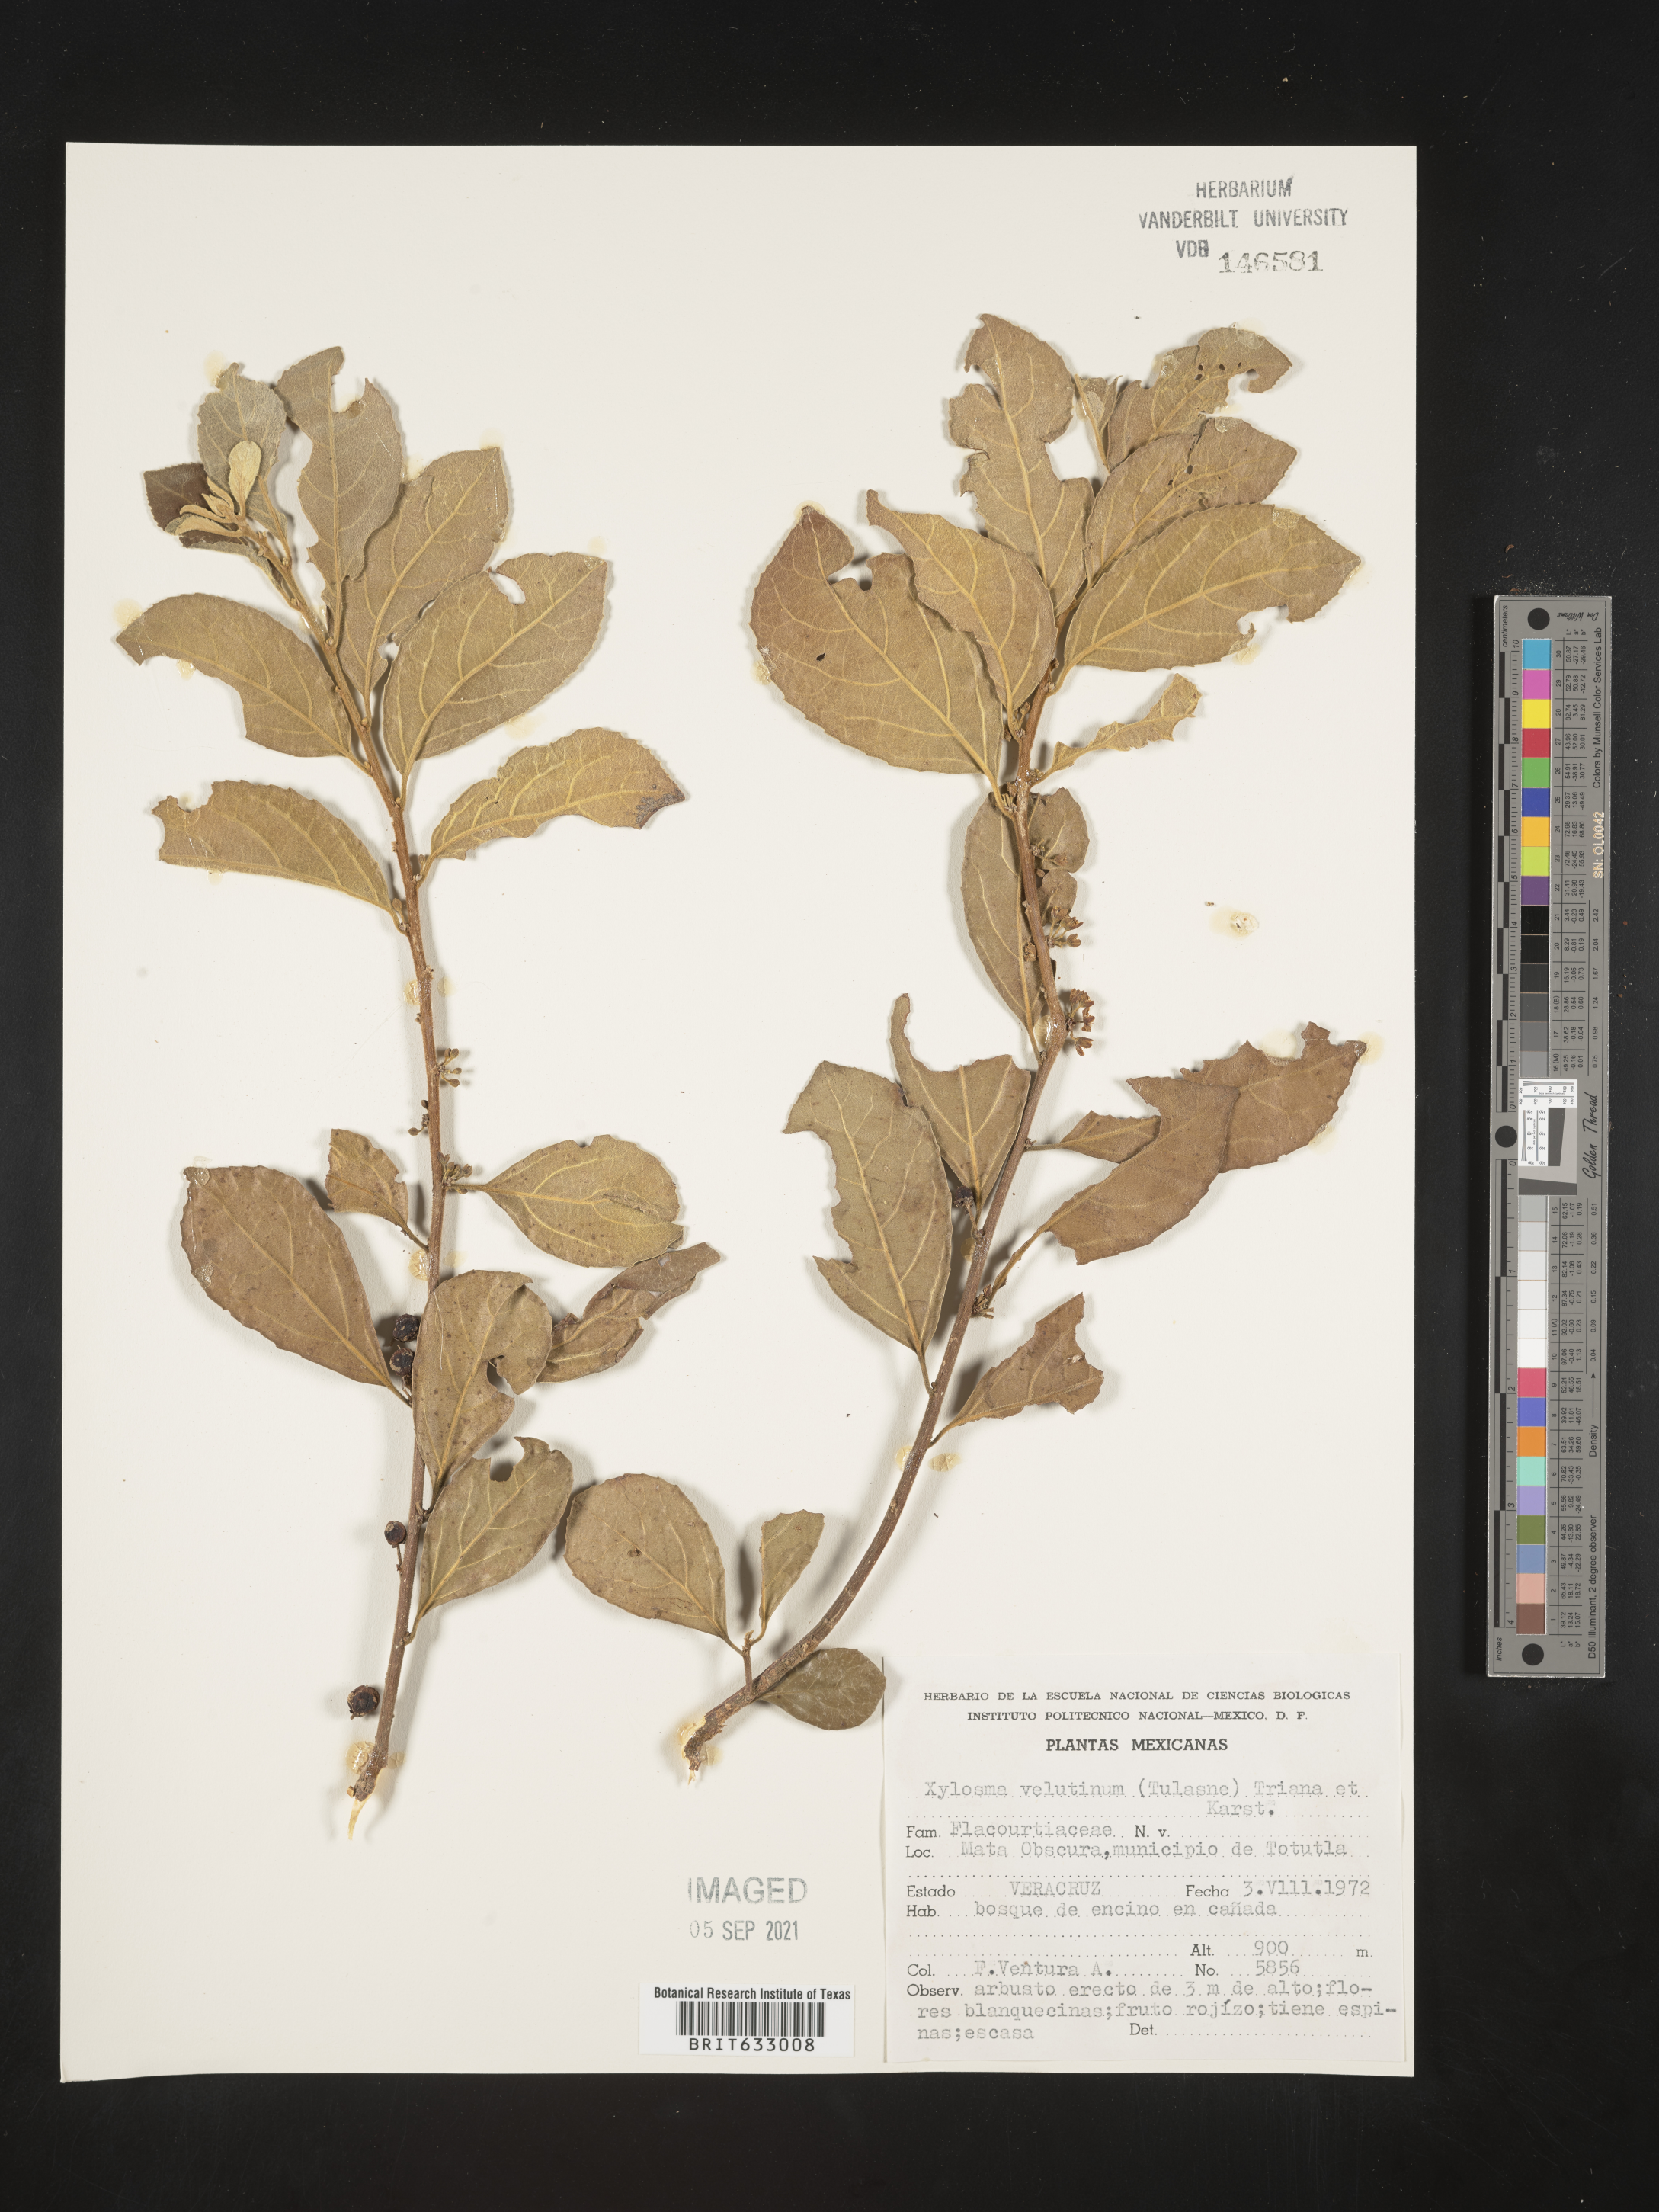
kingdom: Plantae
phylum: Tracheophyta
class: Magnoliopsida
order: Malpighiales
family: Salicaceae
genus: Xylosma
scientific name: Xylosma
